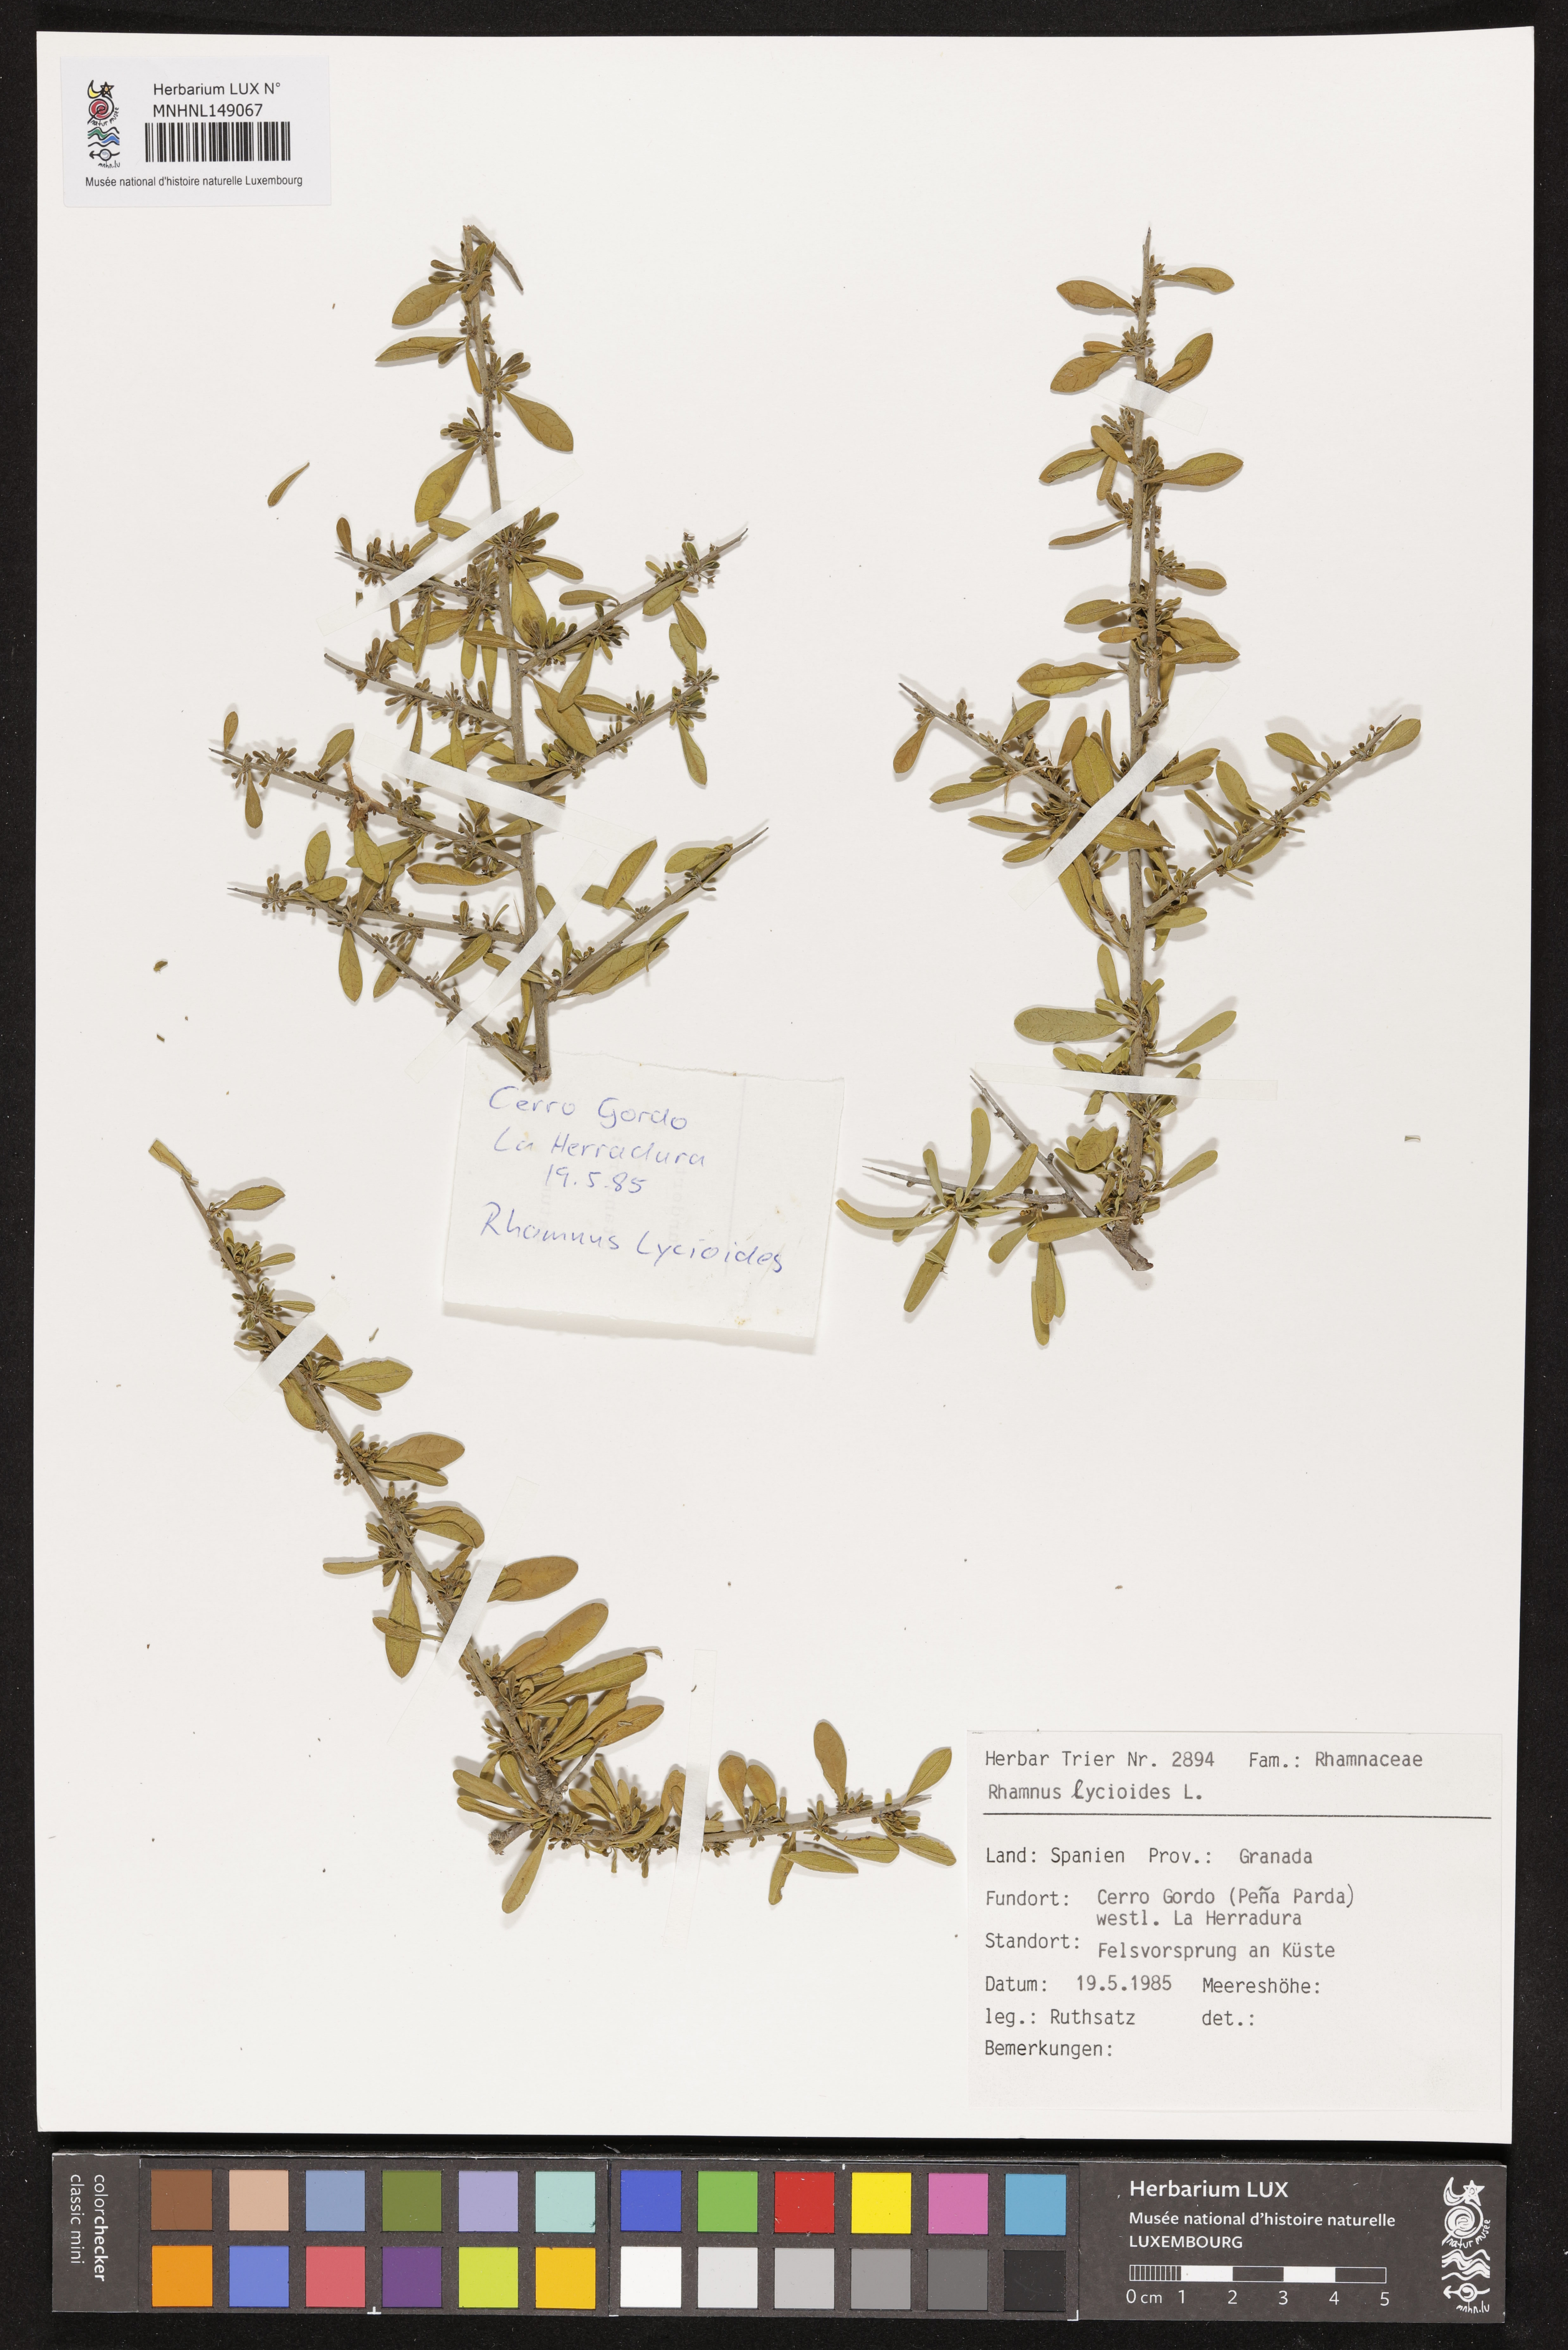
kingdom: Plantae
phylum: Tracheophyta
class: Magnoliopsida
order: Rosales
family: Rhamnaceae
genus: Rhamnus
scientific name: Rhamnus lycioides
